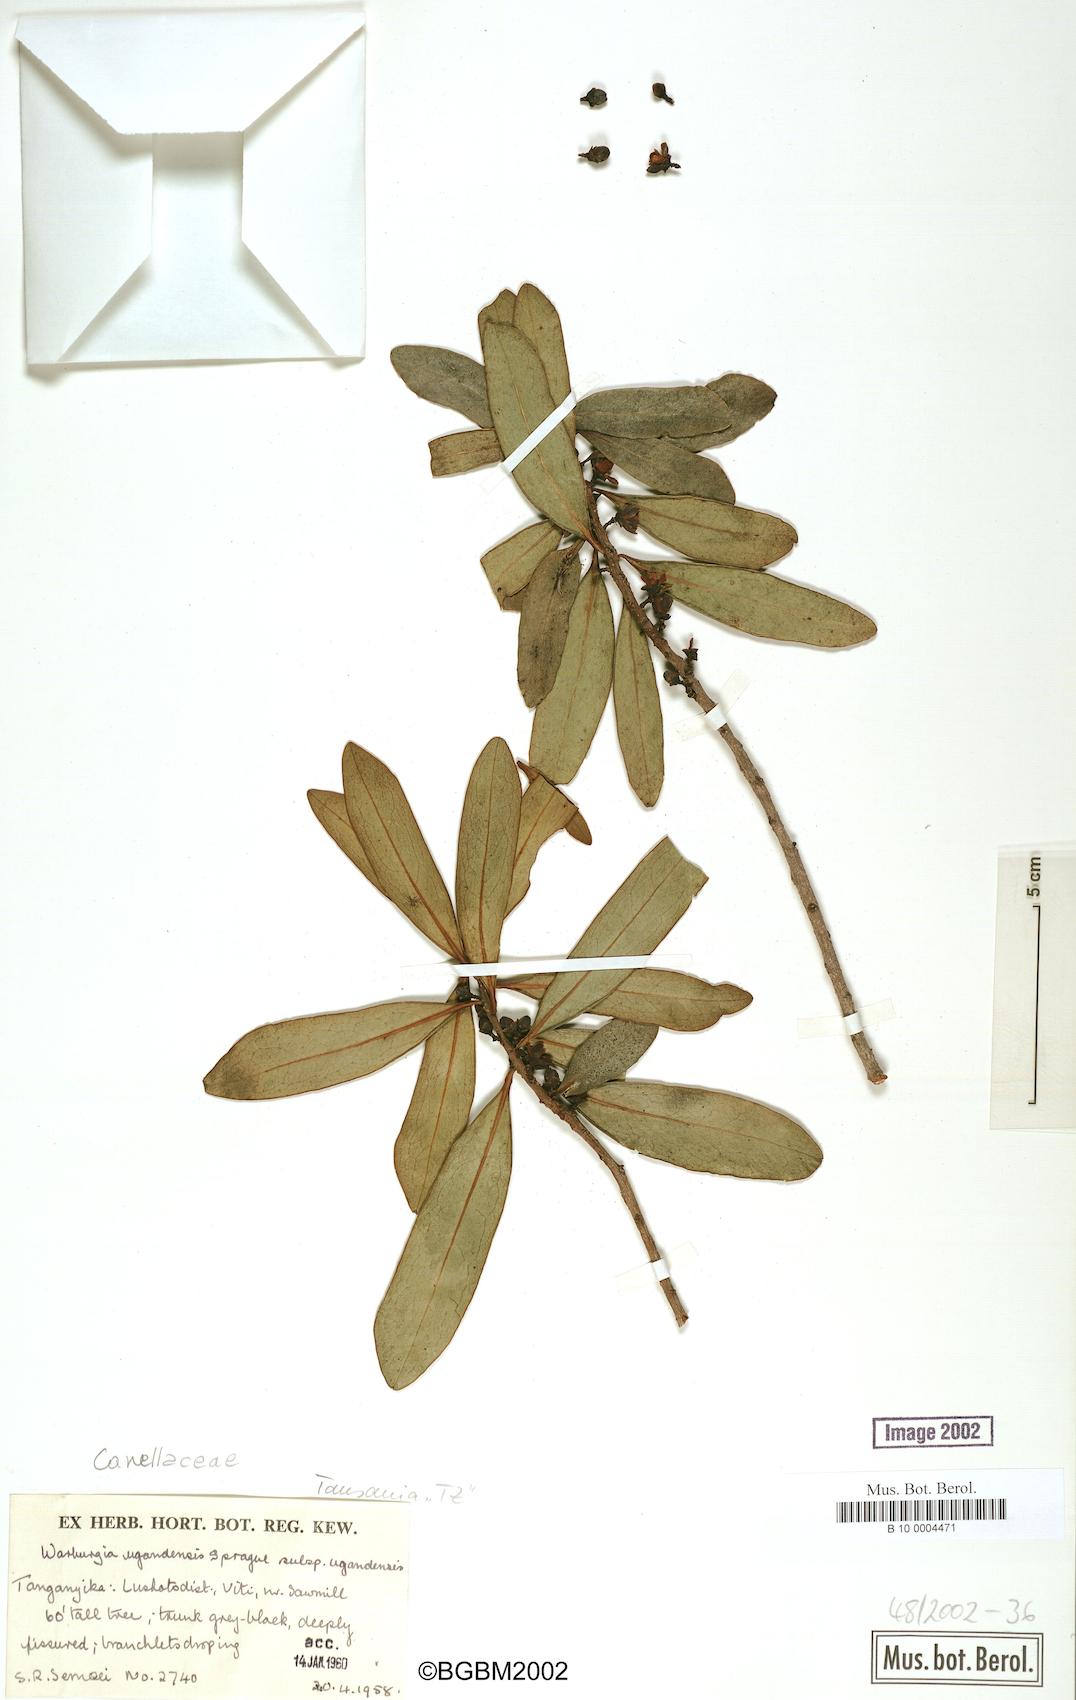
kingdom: Plantae
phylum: Tracheophyta
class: Magnoliopsida
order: Canellales
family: Canellaceae
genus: Warburgia
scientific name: Warburgia ugandensis
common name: East african greenbark
